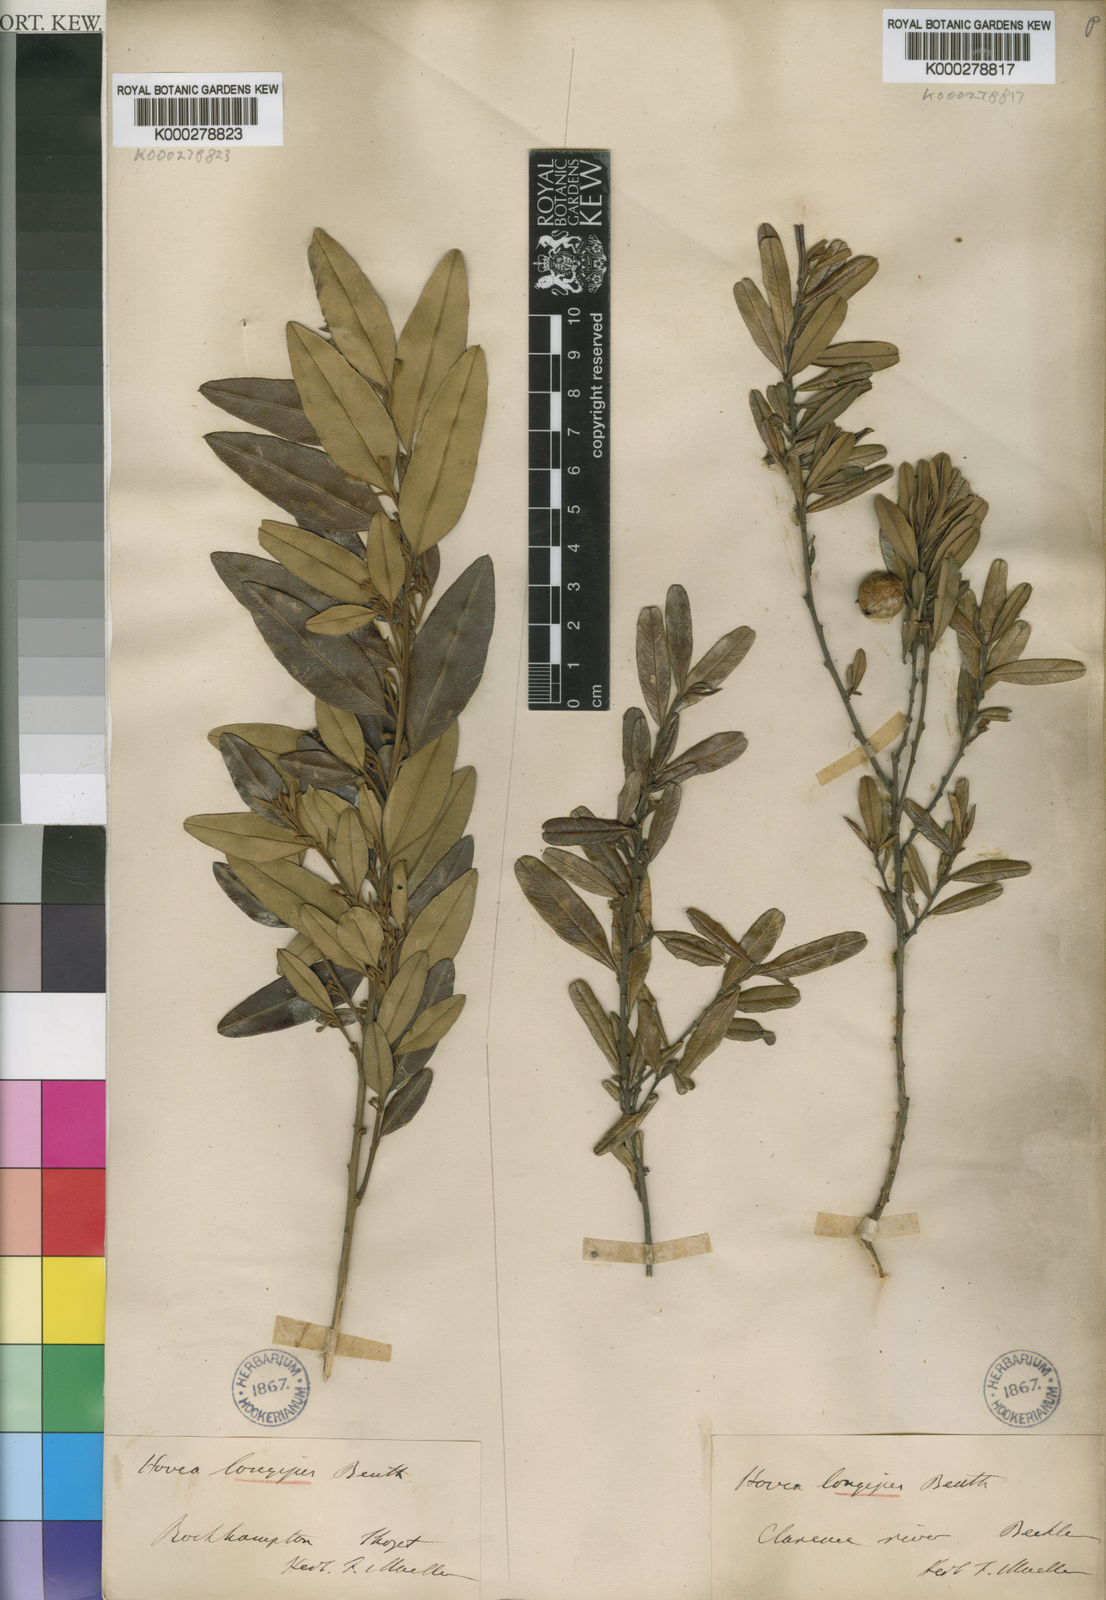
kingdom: Plantae
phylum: Tracheophyta
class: Magnoliopsida
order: Fabales
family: Fabaceae
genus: Hovea
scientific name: Hovea longipes
